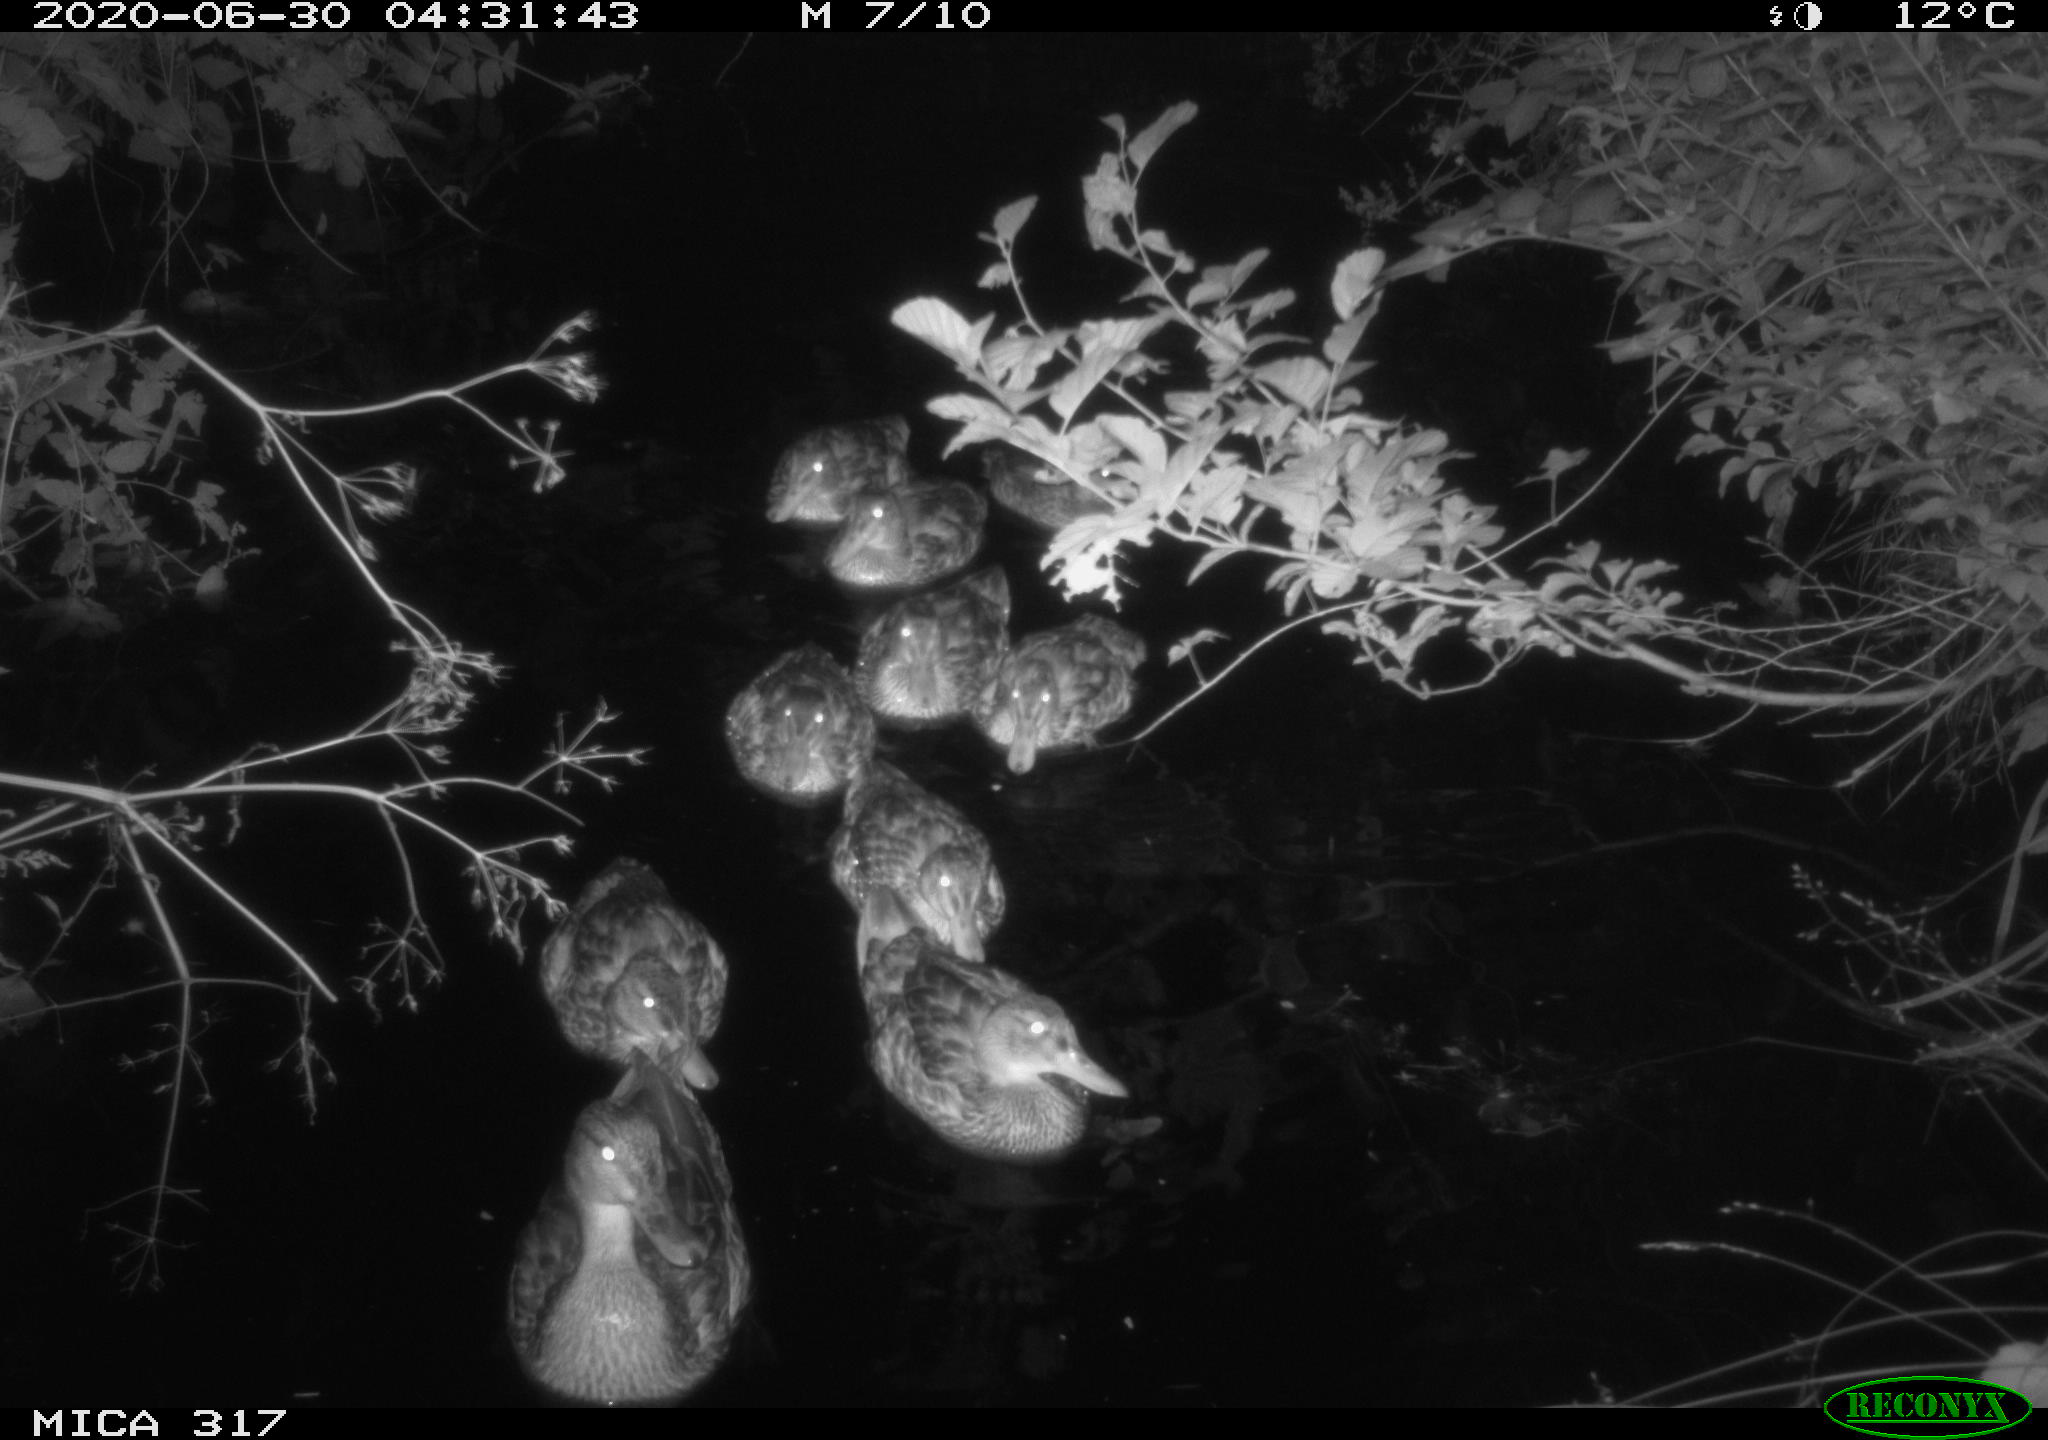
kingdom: Animalia
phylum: Chordata
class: Aves
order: Anseriformes
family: Anatidae
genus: Anas
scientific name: Anas platyrhynchos
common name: Mallard
